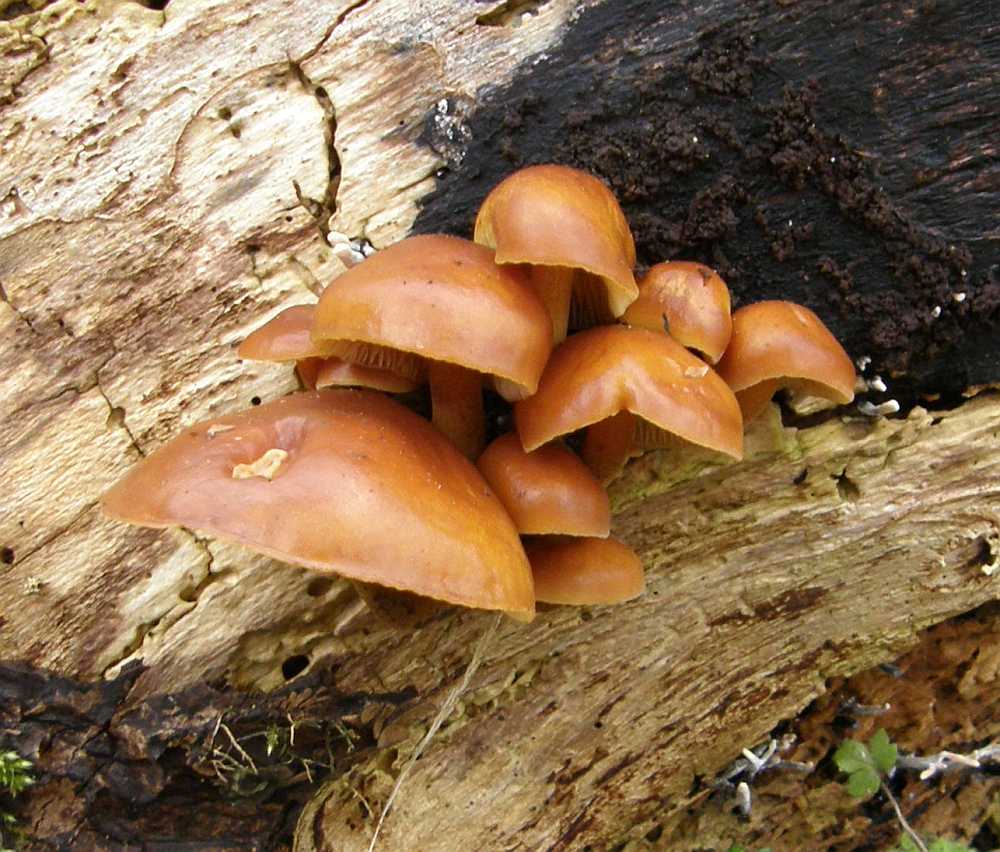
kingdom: Fungi
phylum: Basidiomycota
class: Agaricomycetes
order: Agaricales
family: Physalacriaceae
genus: Flammulina
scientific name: Flammulina velutipes
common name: gul fløjlsfod
